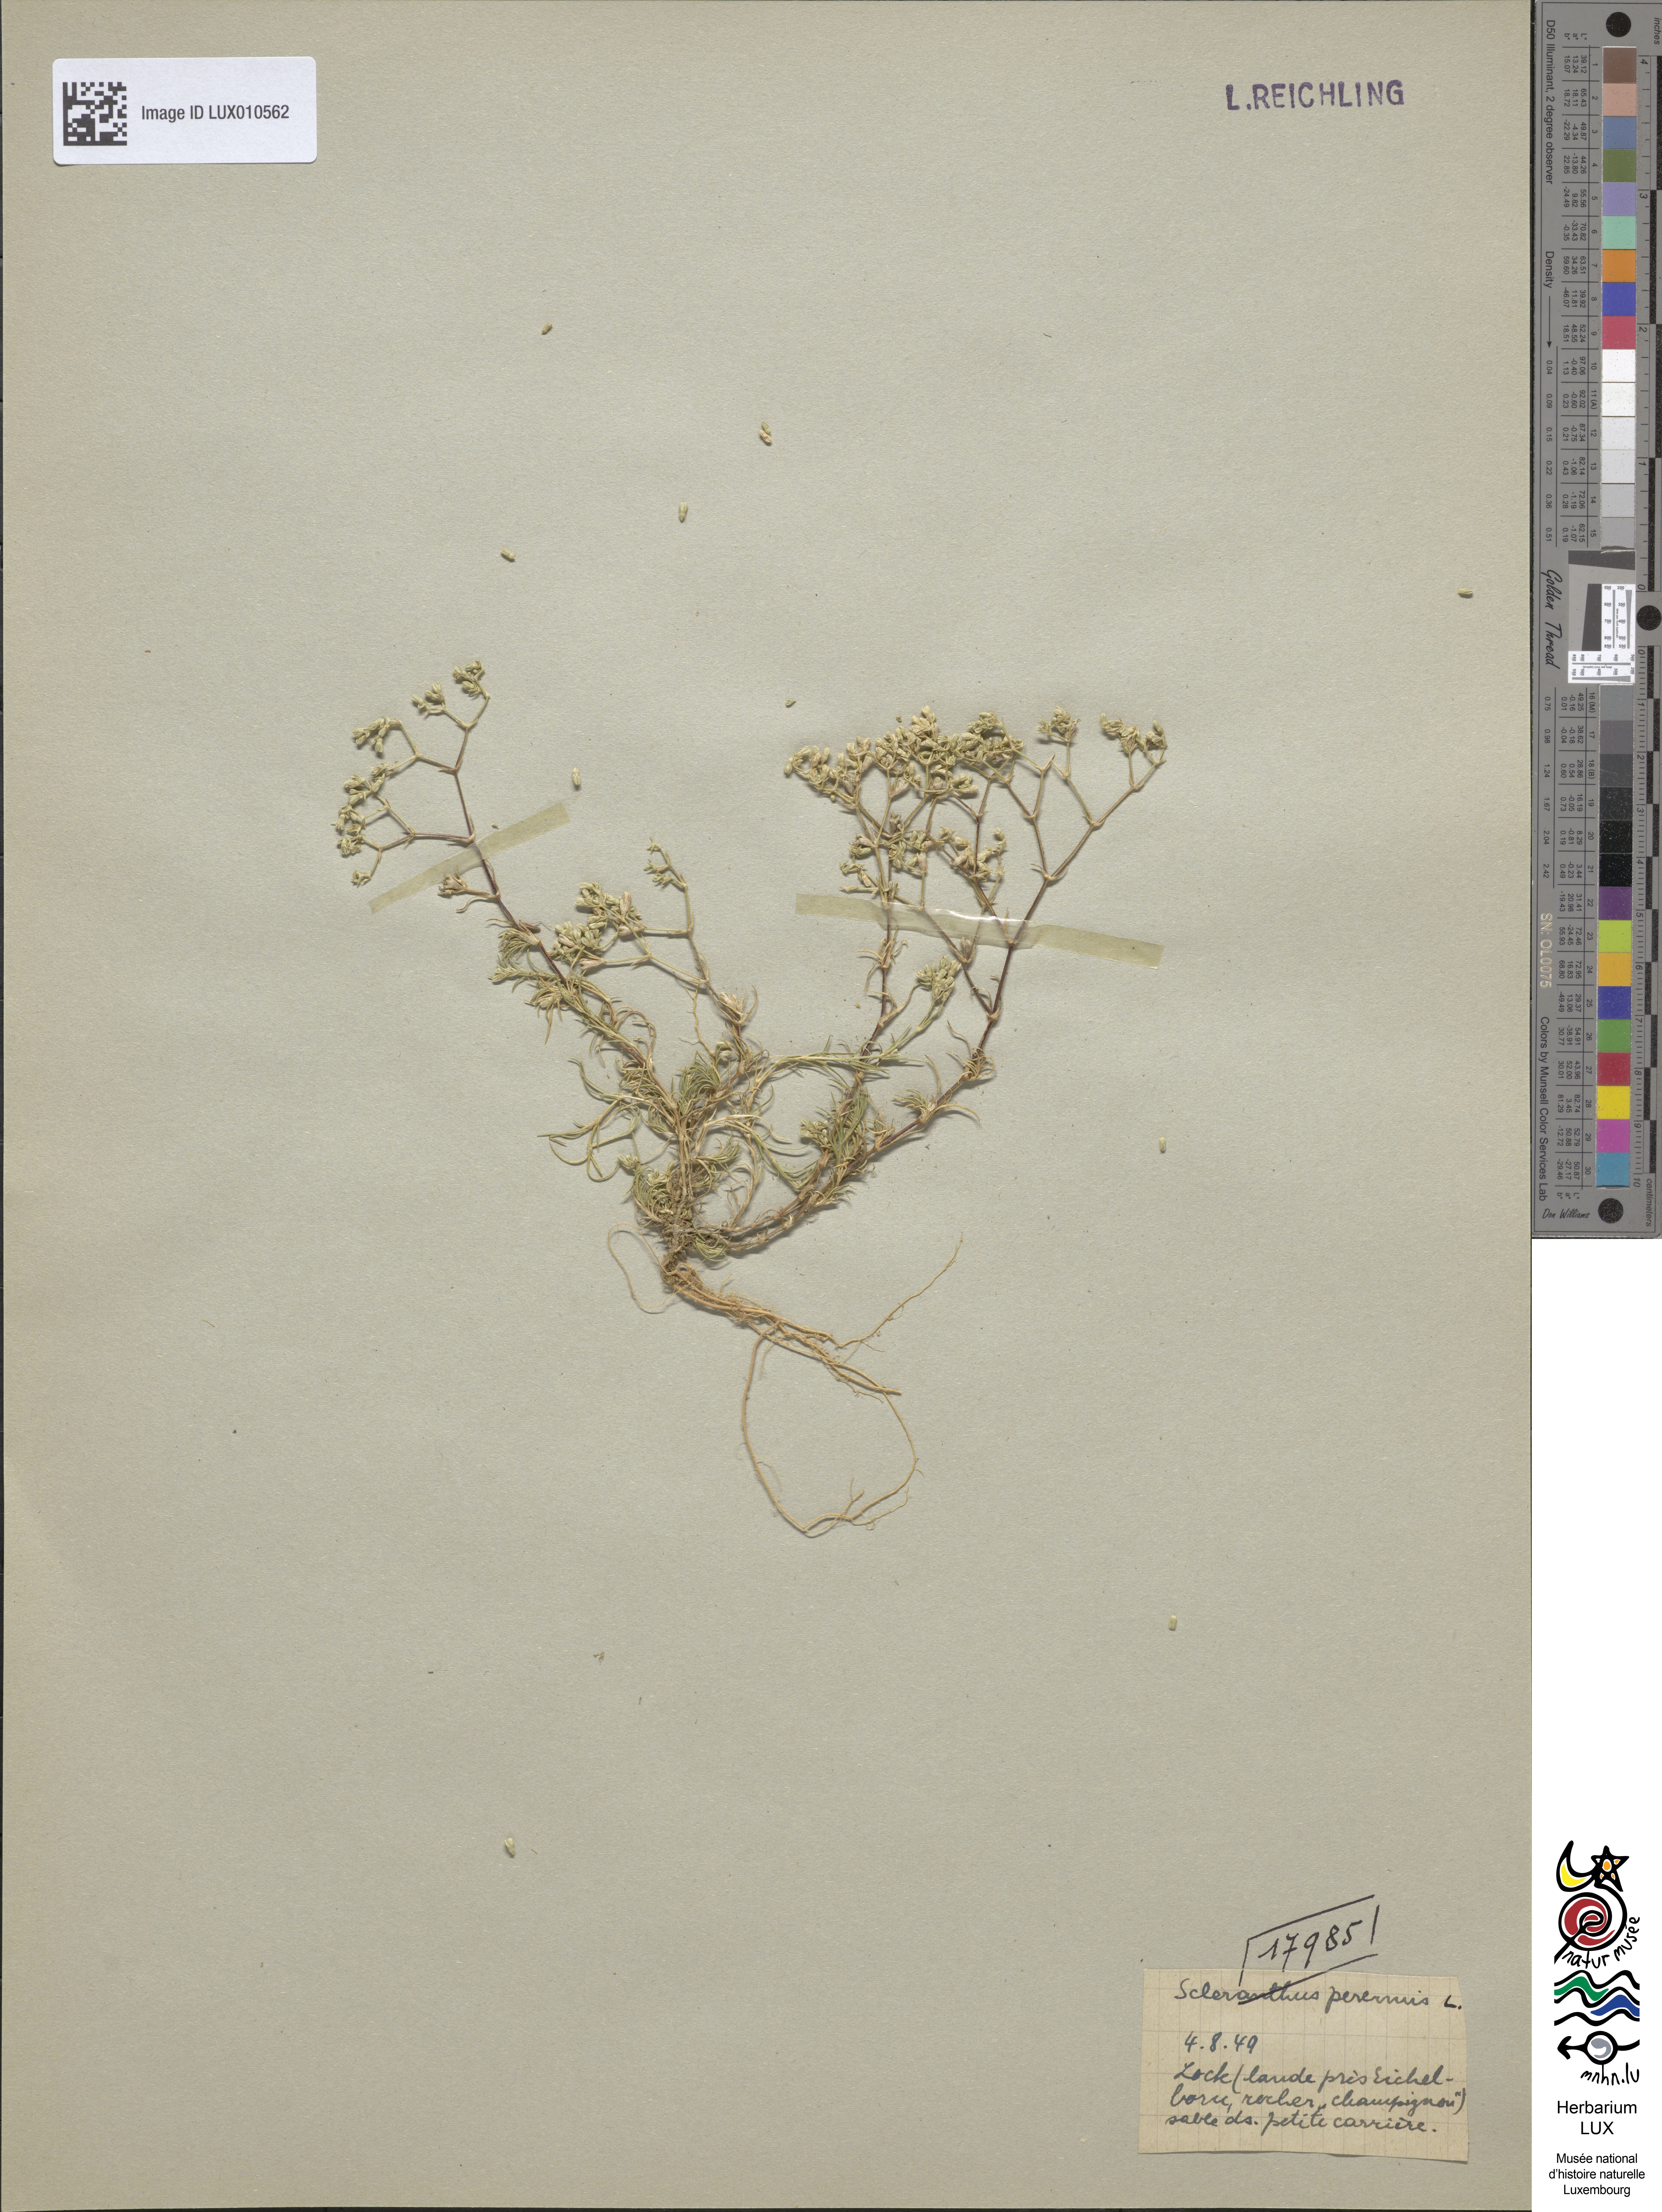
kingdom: Plantae
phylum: Tracheophyta
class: Magnoliopsida
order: Caryophyllales
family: Caryophyllaceae
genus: Scleranthus
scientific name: Scleranthus perennis
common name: Perennial knawel
